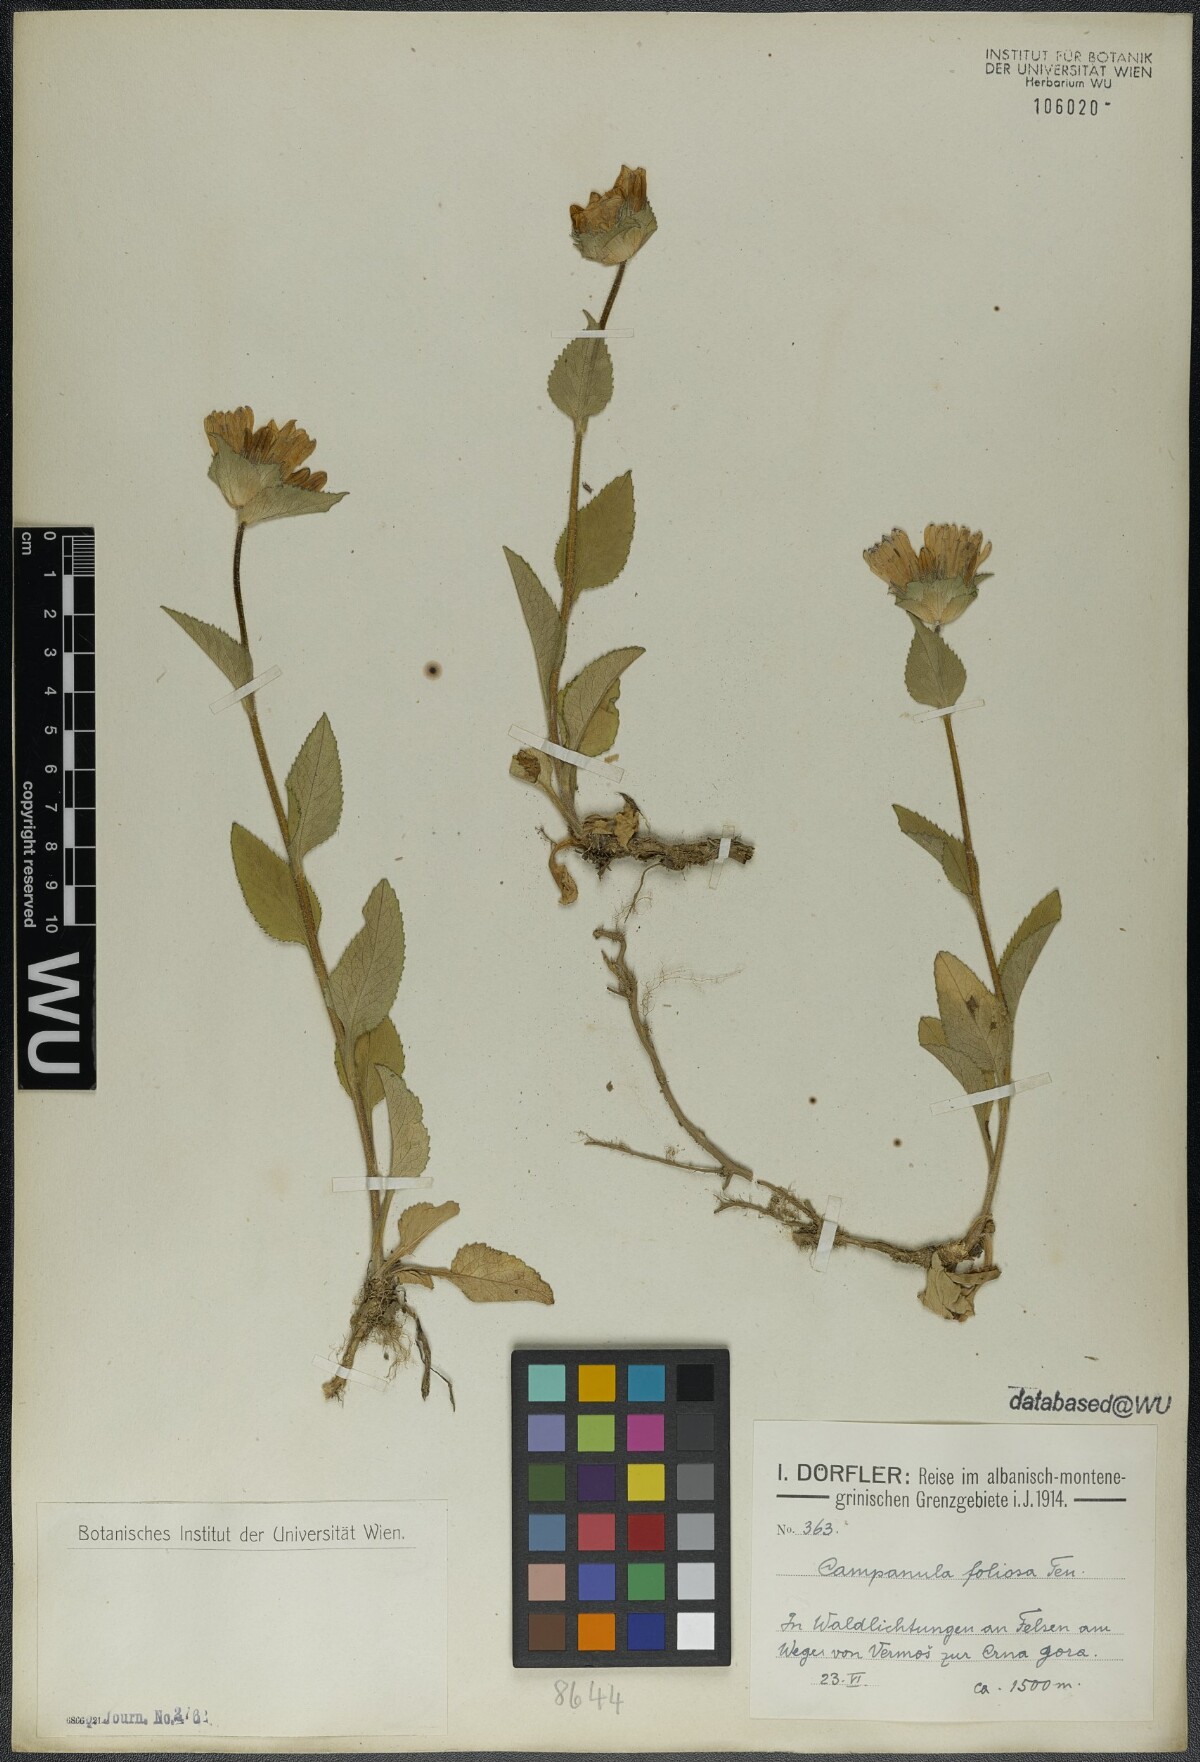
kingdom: Plantae
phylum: Tracheophyta
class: Magnoliopsida
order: Asterales
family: Campanulaceae
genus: Campanula
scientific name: Campanula foliosa
